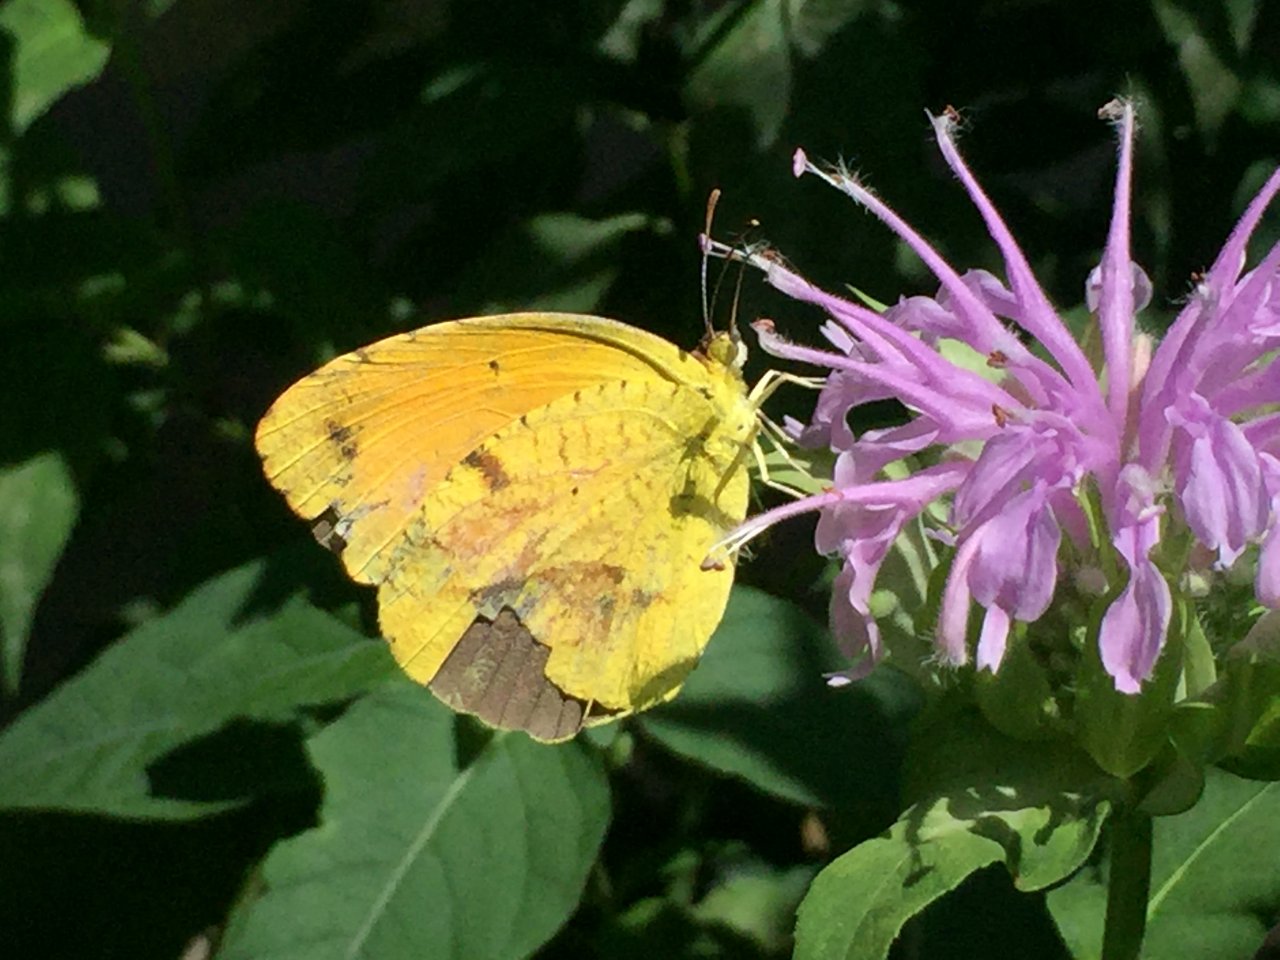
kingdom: Animalia
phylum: Arthropoda
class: Insecta
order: Lepidoptera
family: Pieridae
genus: Abaeis
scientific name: Abaeis nicippe
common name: Sleepy Orange
